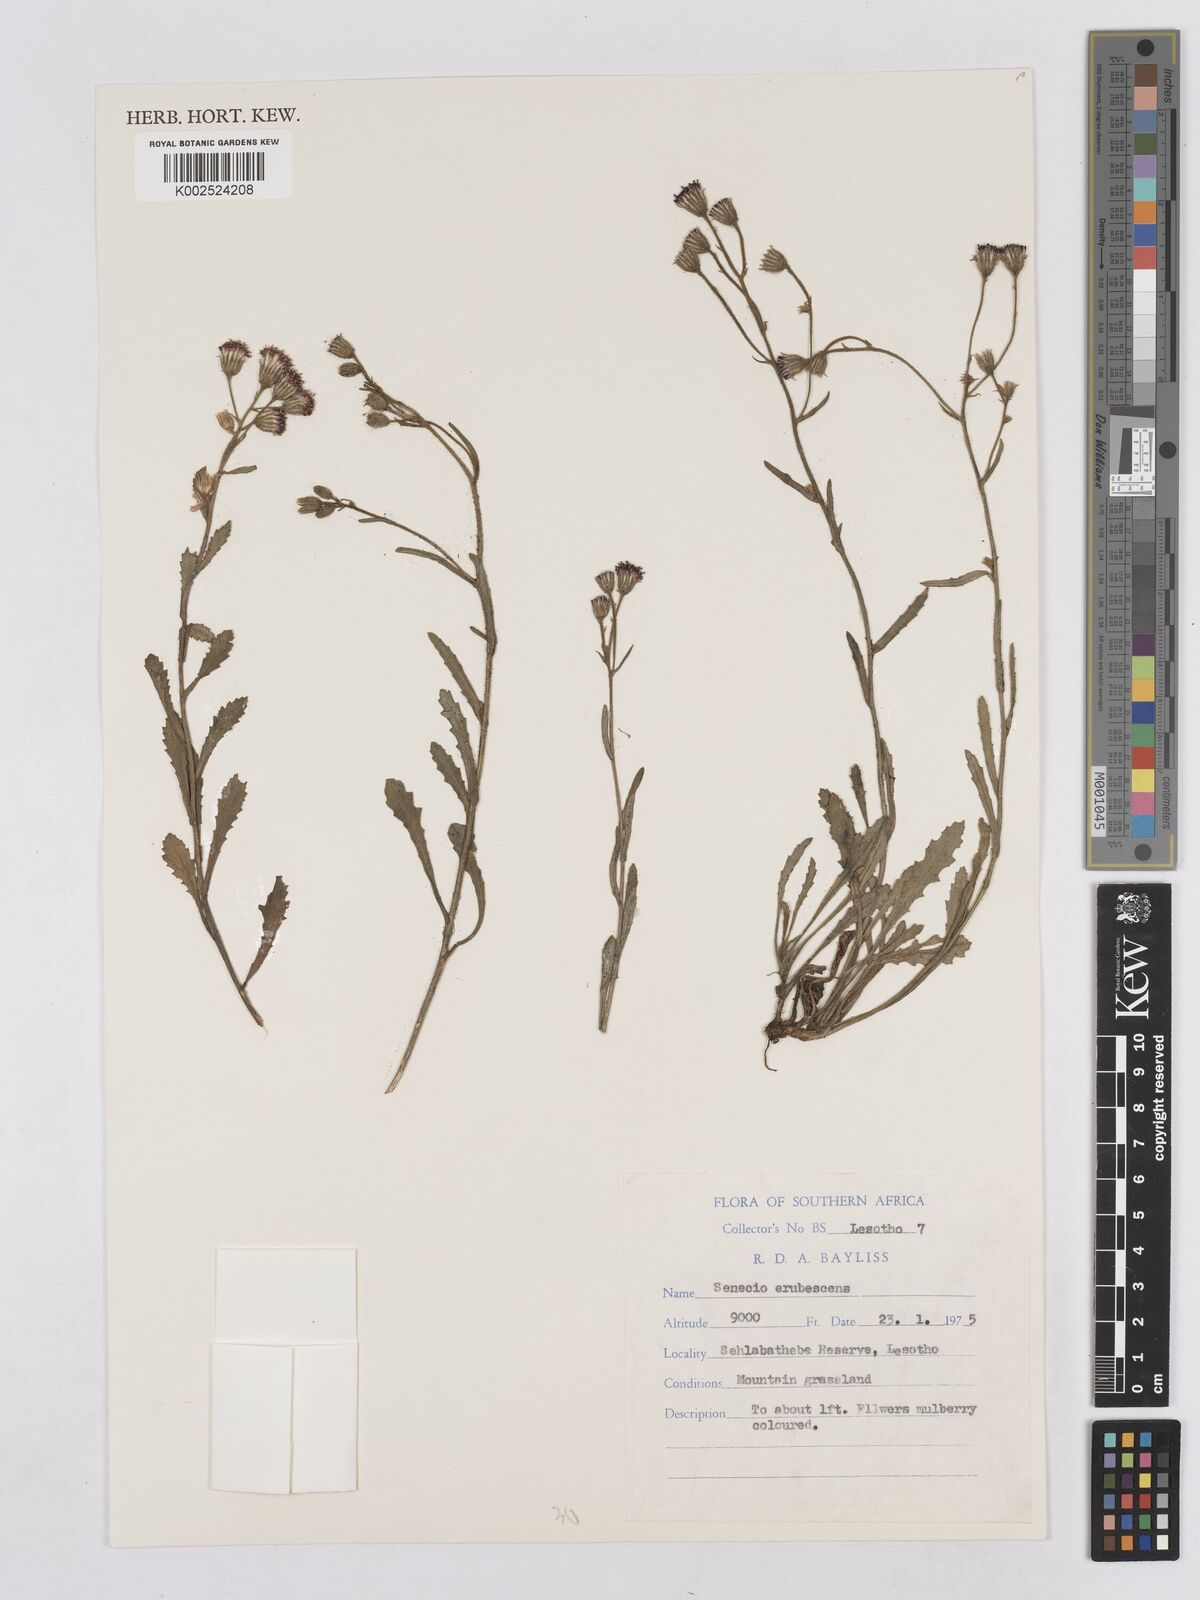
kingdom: Plantae
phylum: Tracheophyta
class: Magnoliopsida
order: Asterales
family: Asteraceae
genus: Senecio
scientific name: Senecio arabidifolius
